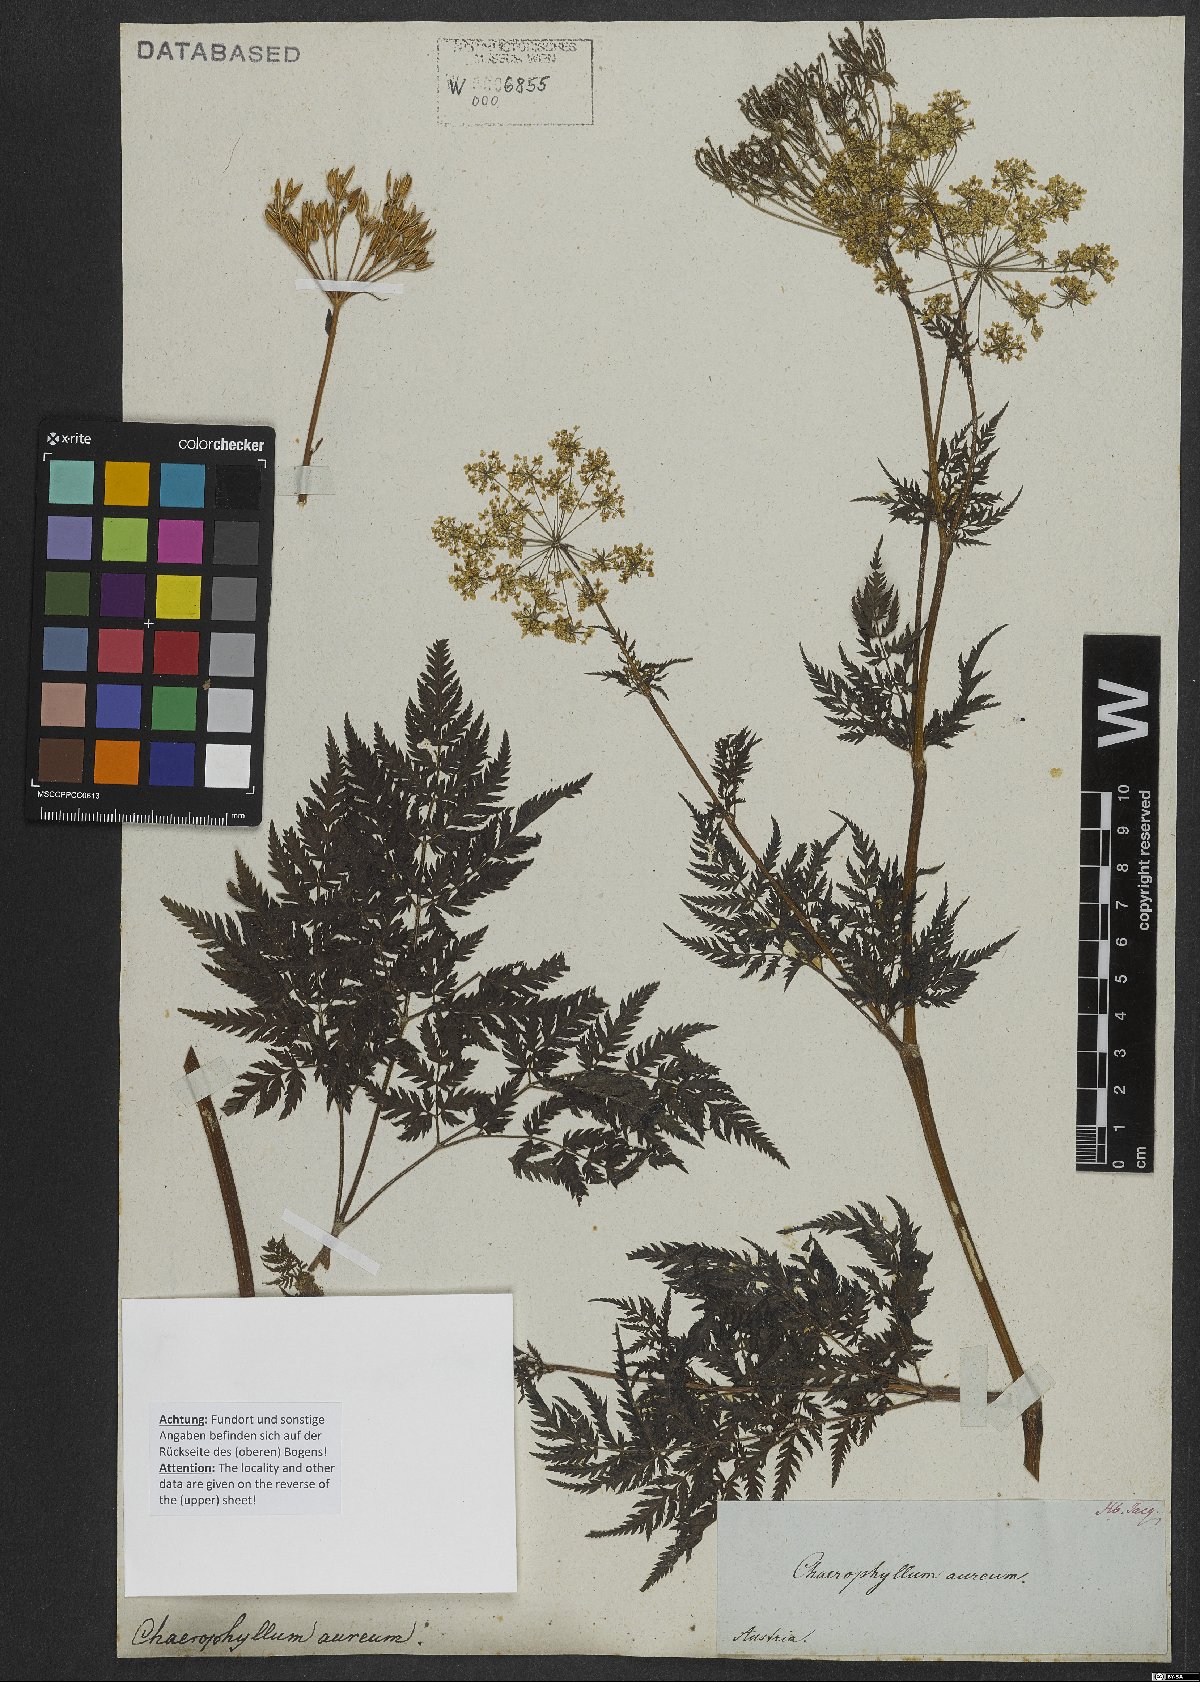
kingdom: Plantae
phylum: Tracheophyta
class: Magnoliopsida
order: Apiales
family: Apiaceae
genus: Chaerophyllum
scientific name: Chaerophyllum aureum
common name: Golden chervil
